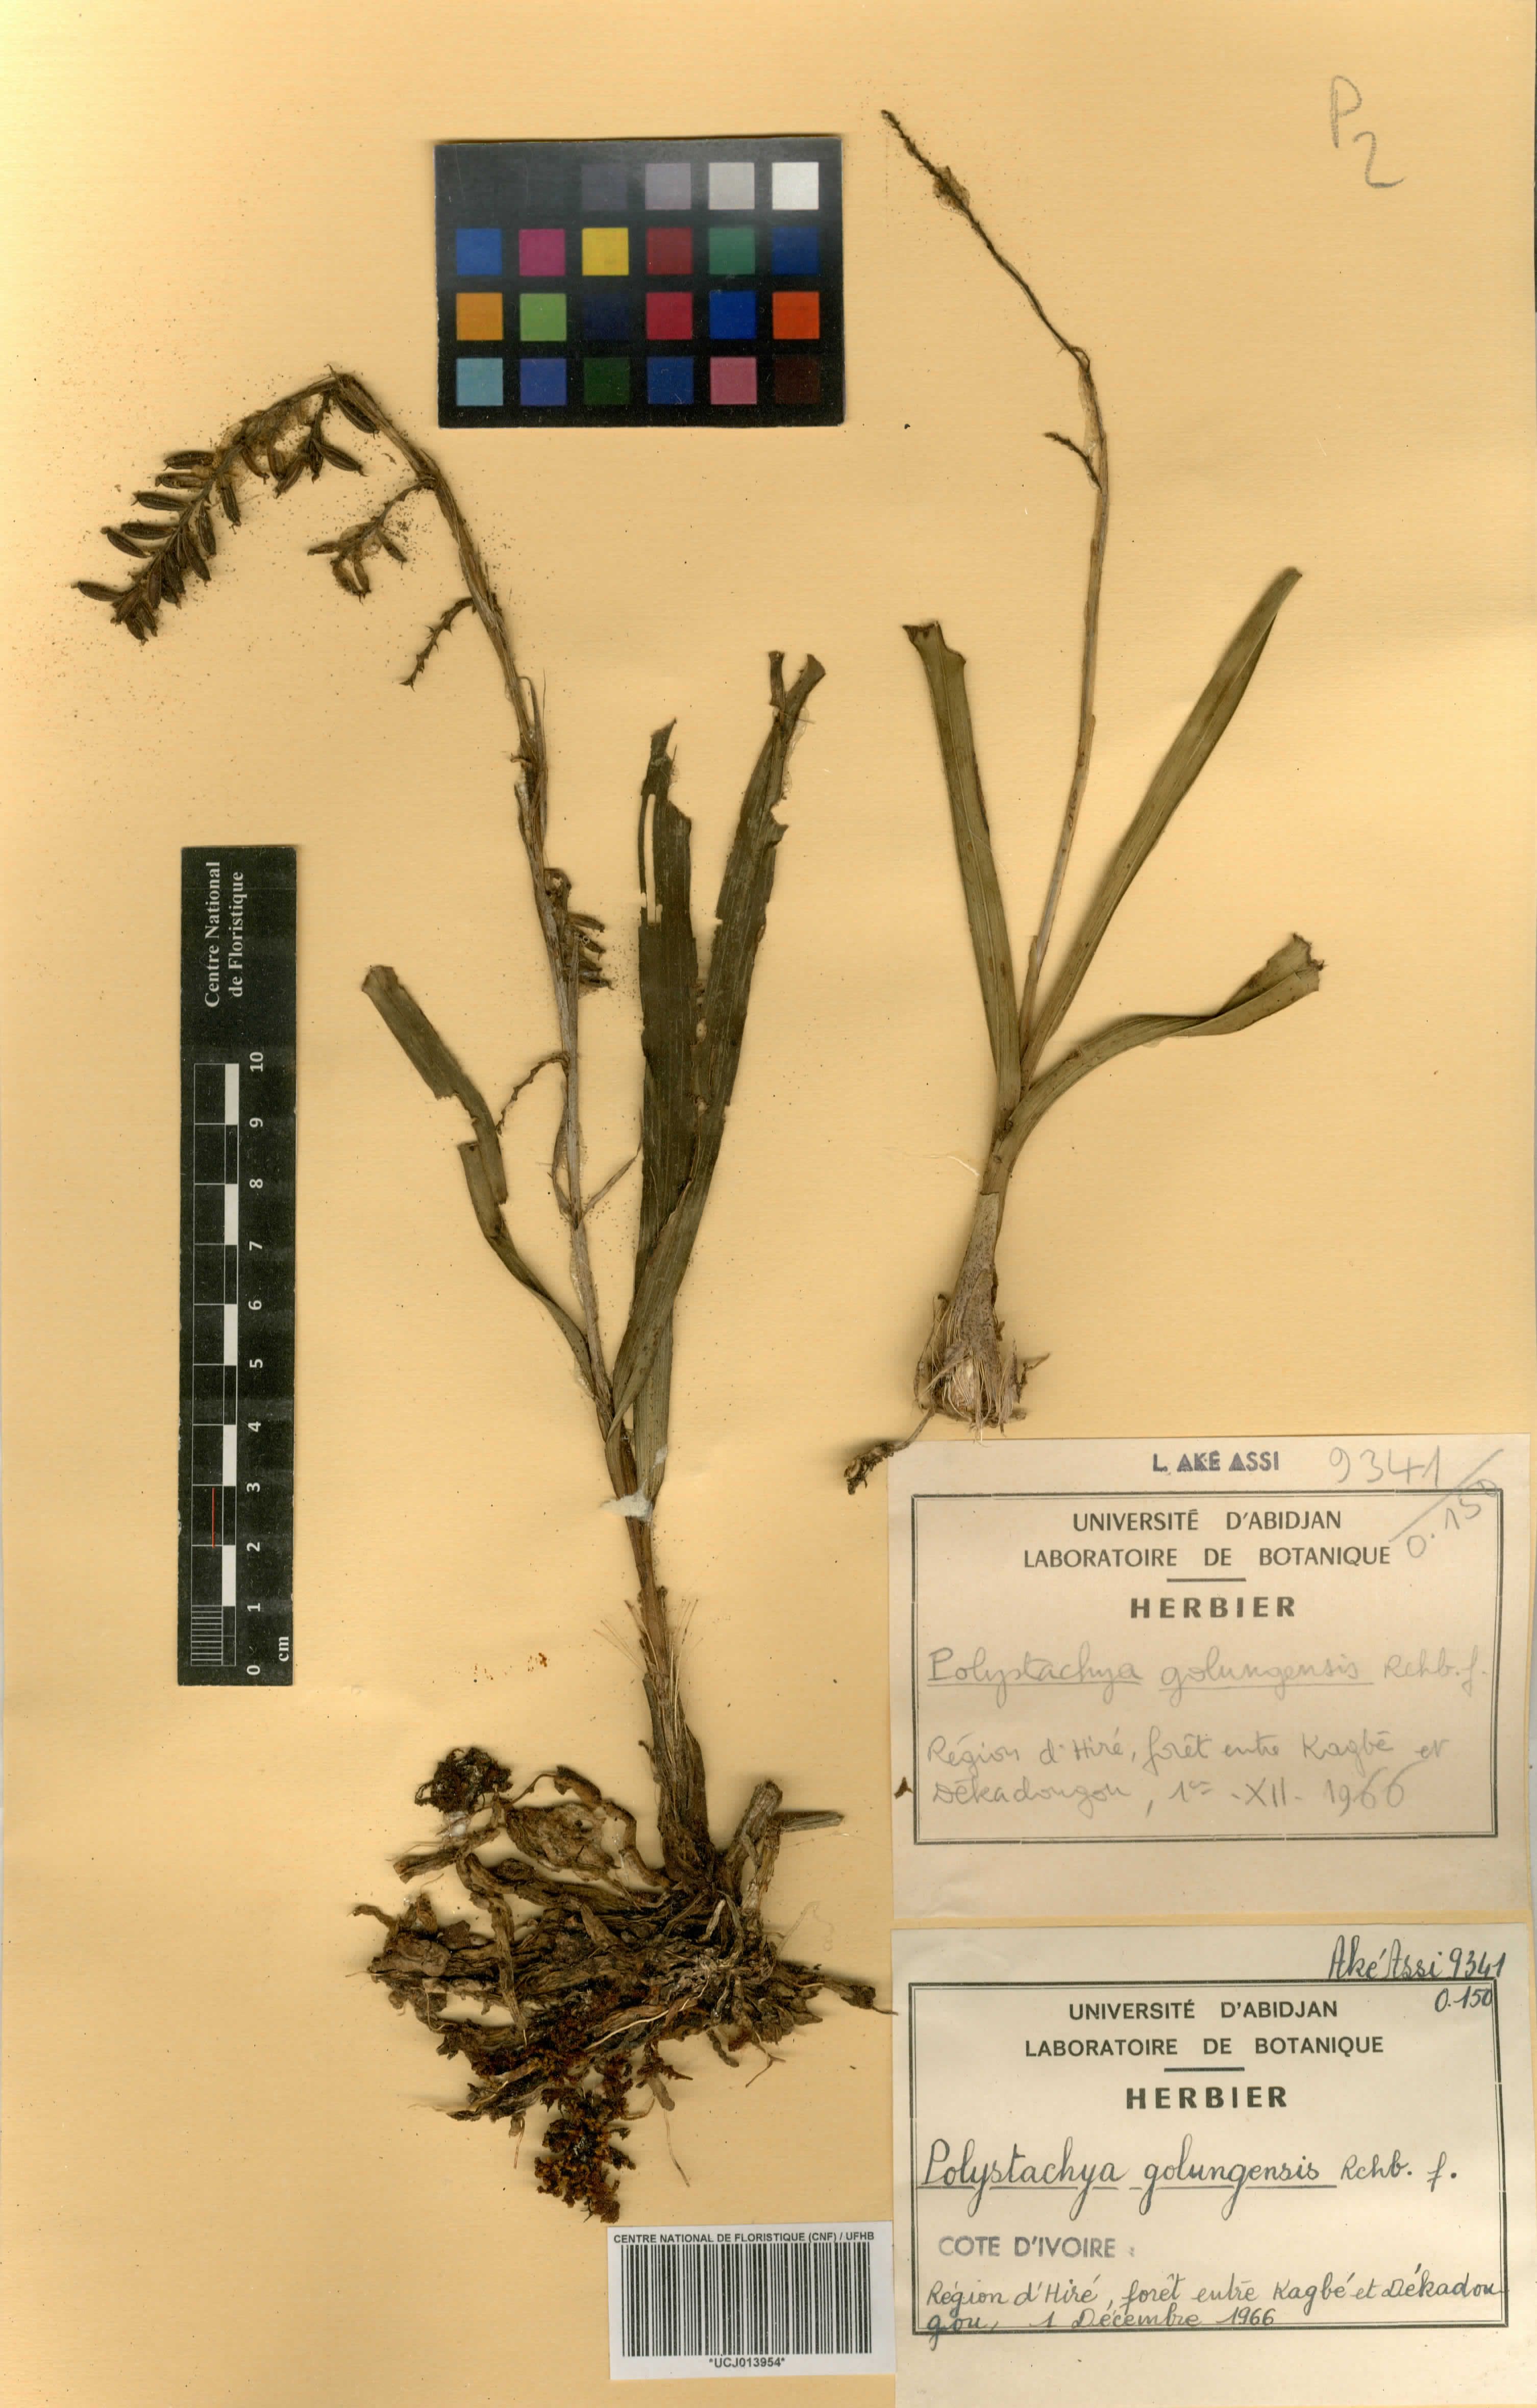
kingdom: Plantae
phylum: Tracheophyta
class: Liliopsida
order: Asparagales
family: Orchidaceae
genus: Polystachya
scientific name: Polystachya golungensis
